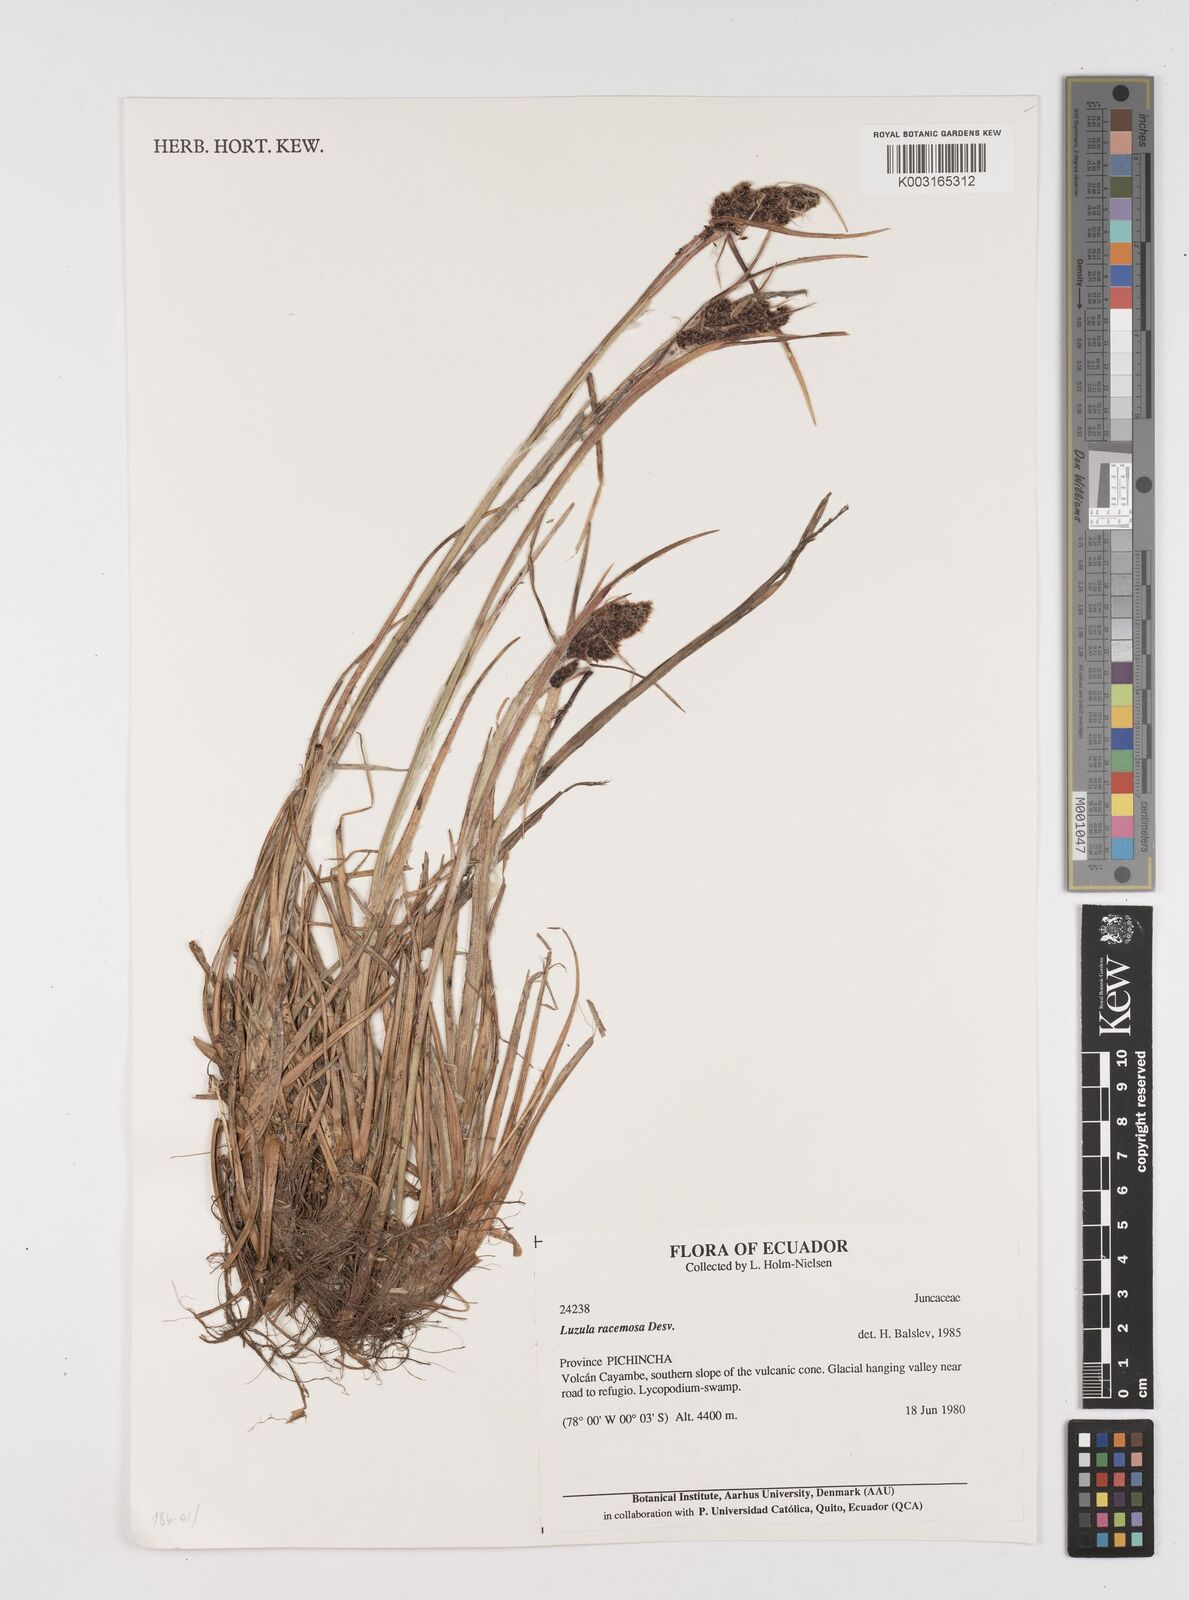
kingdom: Plantae
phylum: Tracheophyta
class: Liliopsida
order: Poales
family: Juncaceae
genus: Luzula
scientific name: Luzula racemosa
